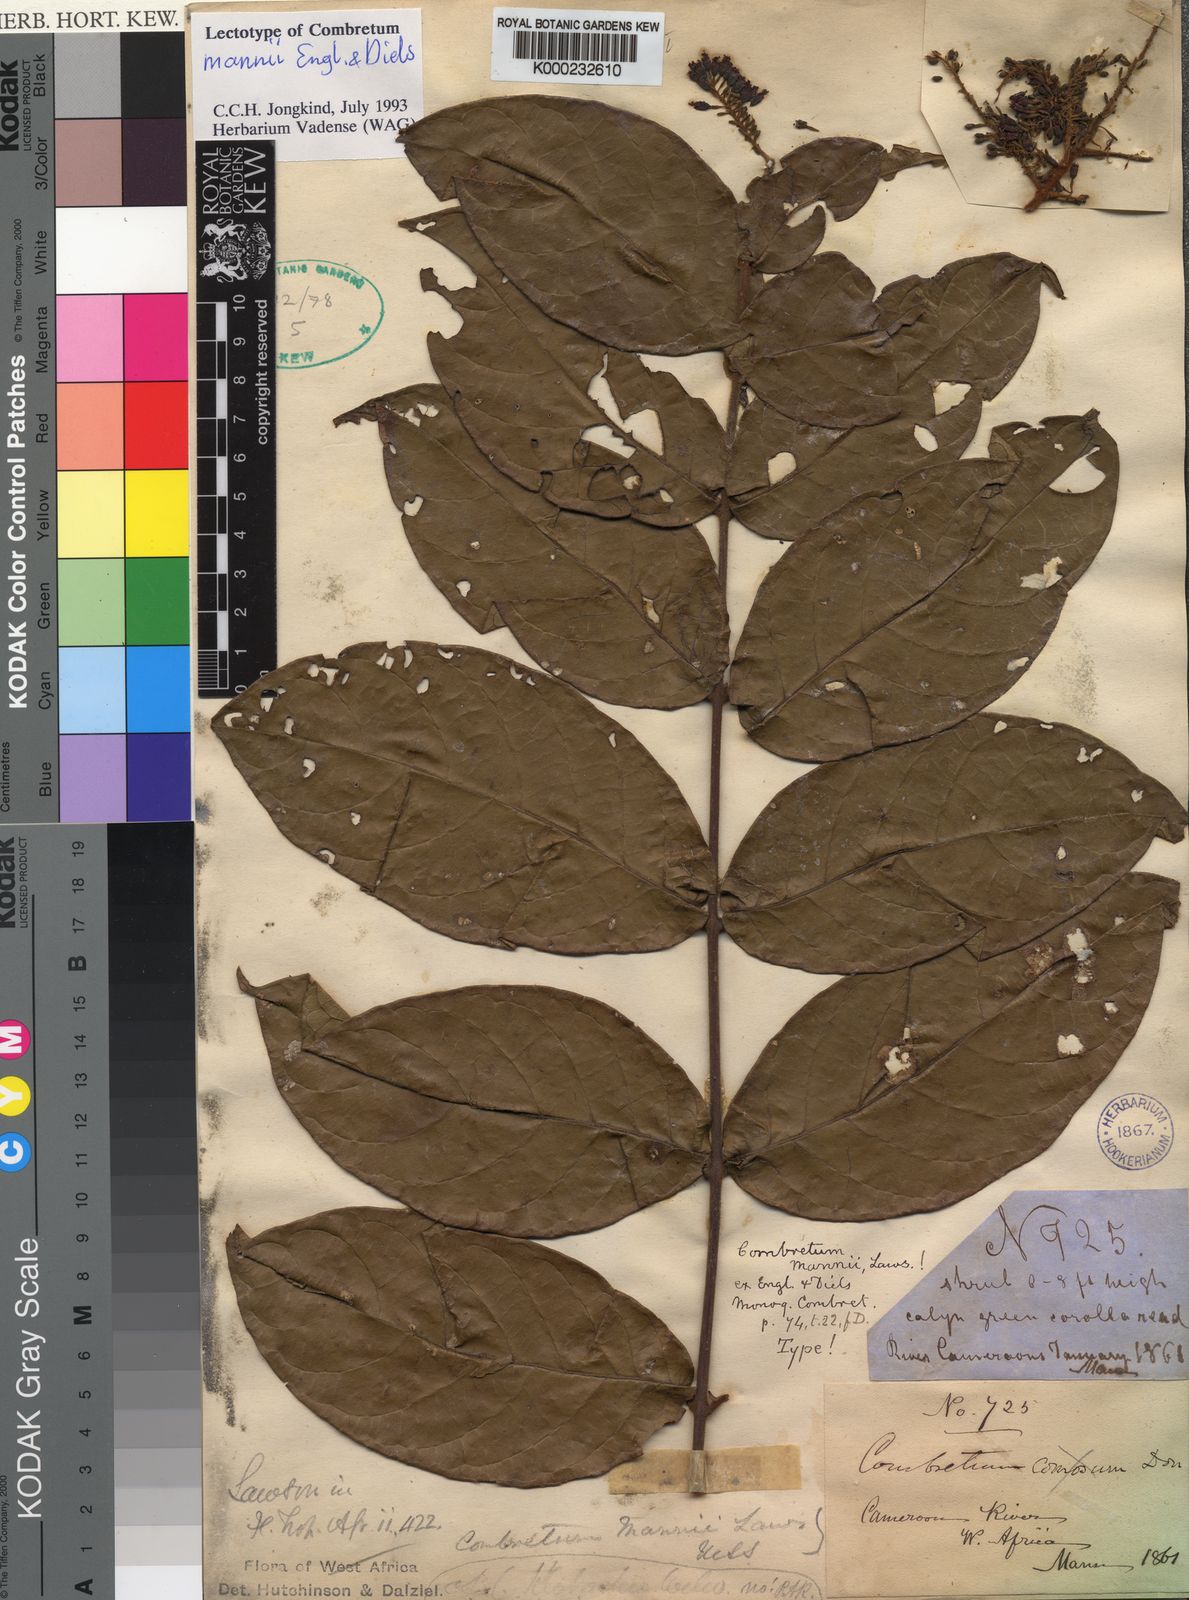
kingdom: Plantae
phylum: Tracheophyta
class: Magnoliopsida
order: Myrtales
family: Combretaceae
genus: Combretum
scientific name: Combretum mannii
